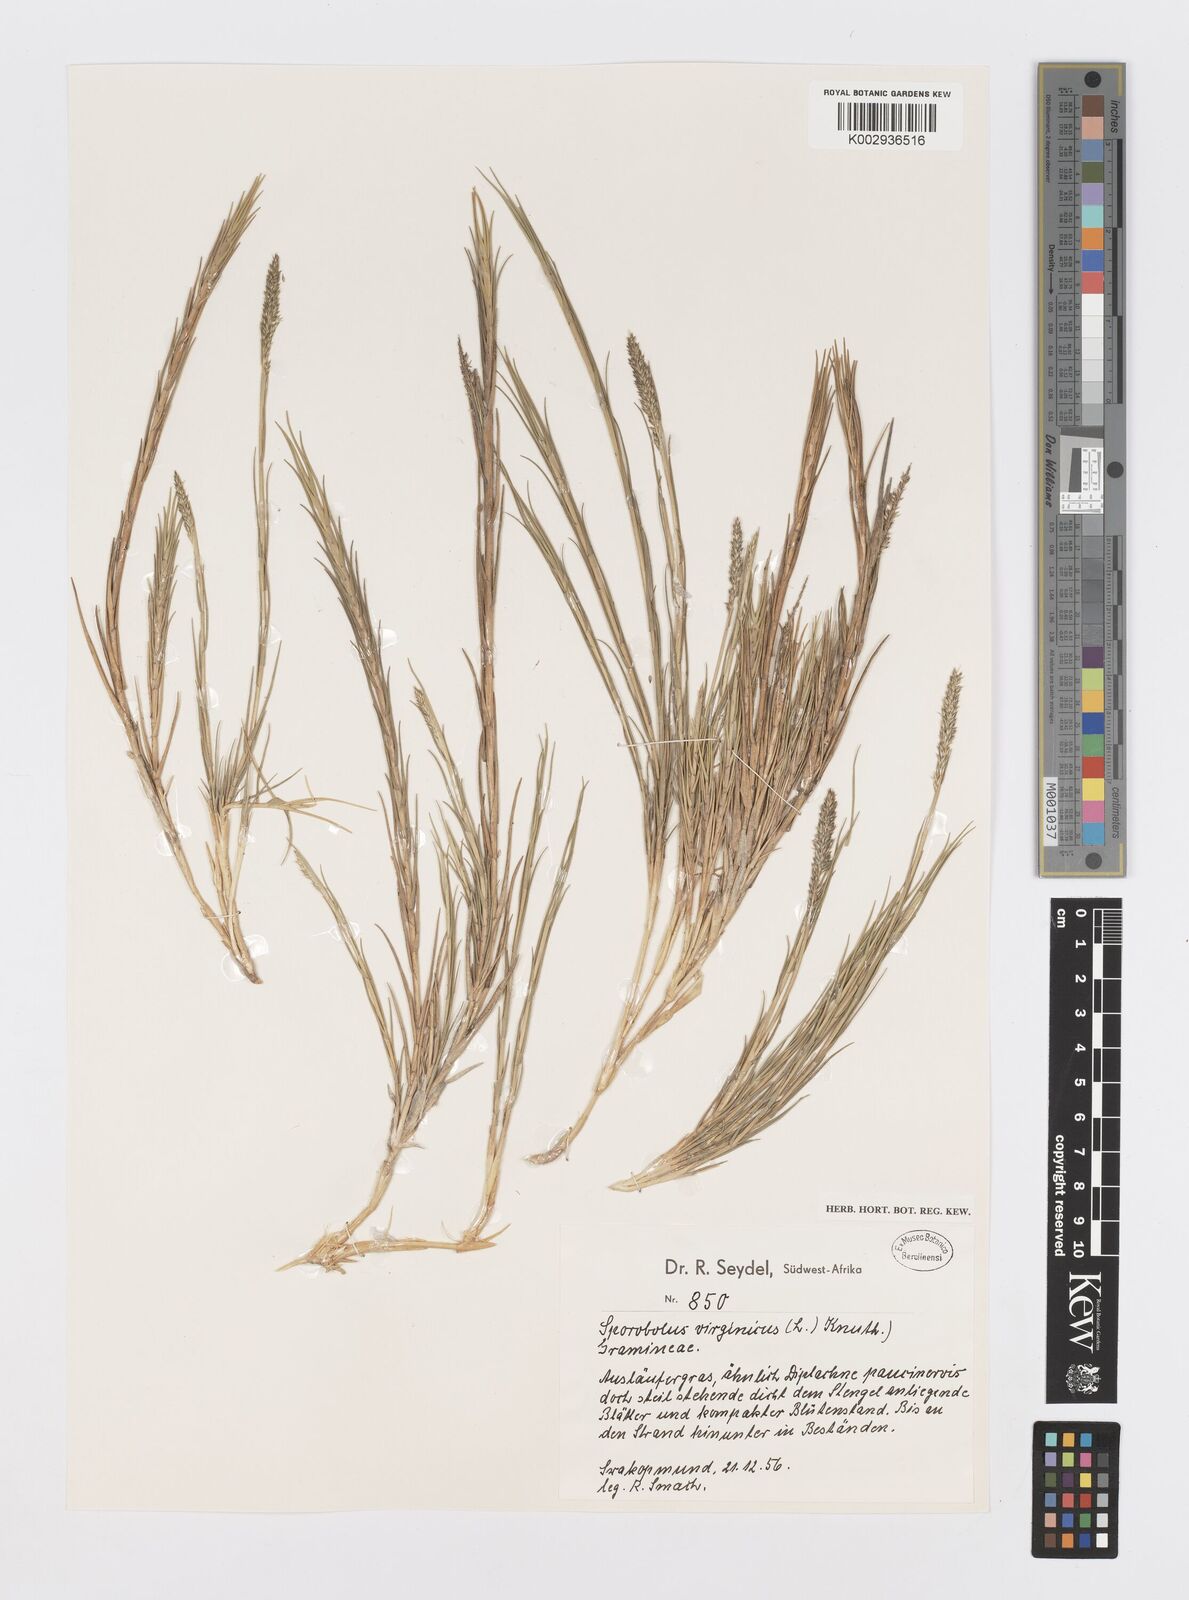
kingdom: Plantae
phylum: Tracheophyta
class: Liliopsida
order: Poales
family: Poaceae
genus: Sporobolus
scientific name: Sporobolus virginicus
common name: Beach dropseed
